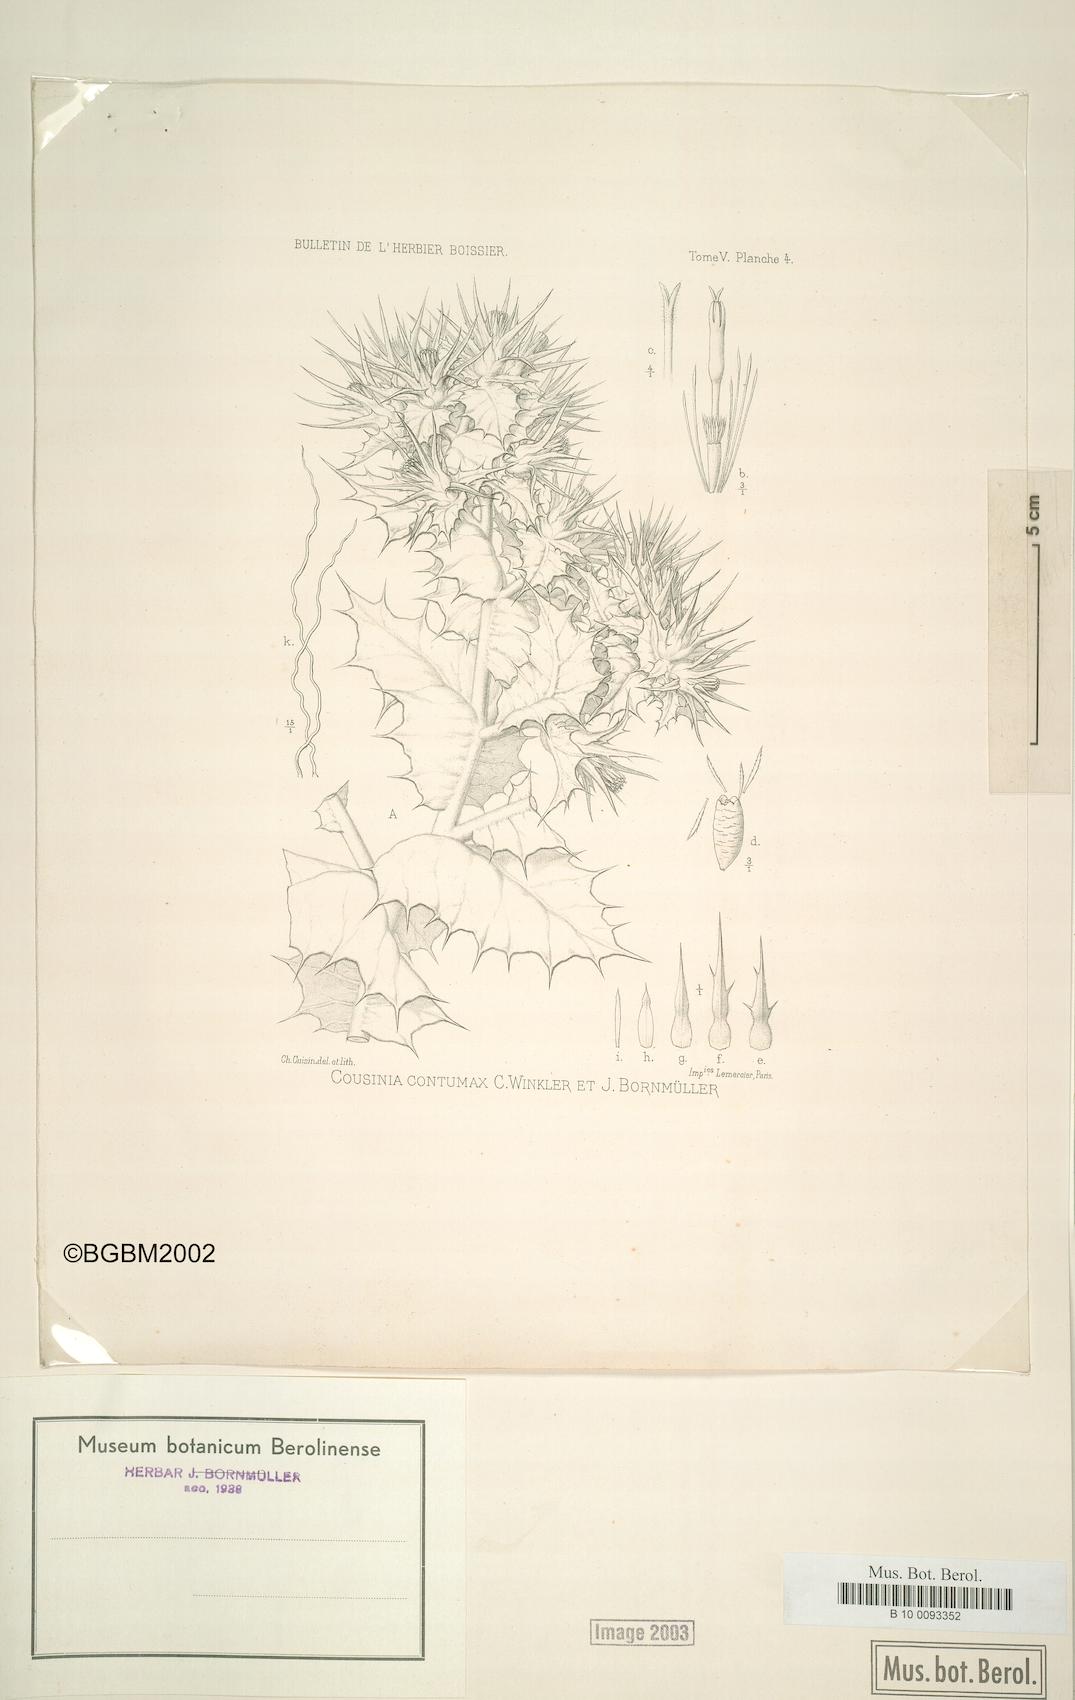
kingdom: Plantae
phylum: Tracheophyta
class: Magnoliopsida
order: Asterales
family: Asteraceae
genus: Cousinia
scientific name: Cousinia contumax
